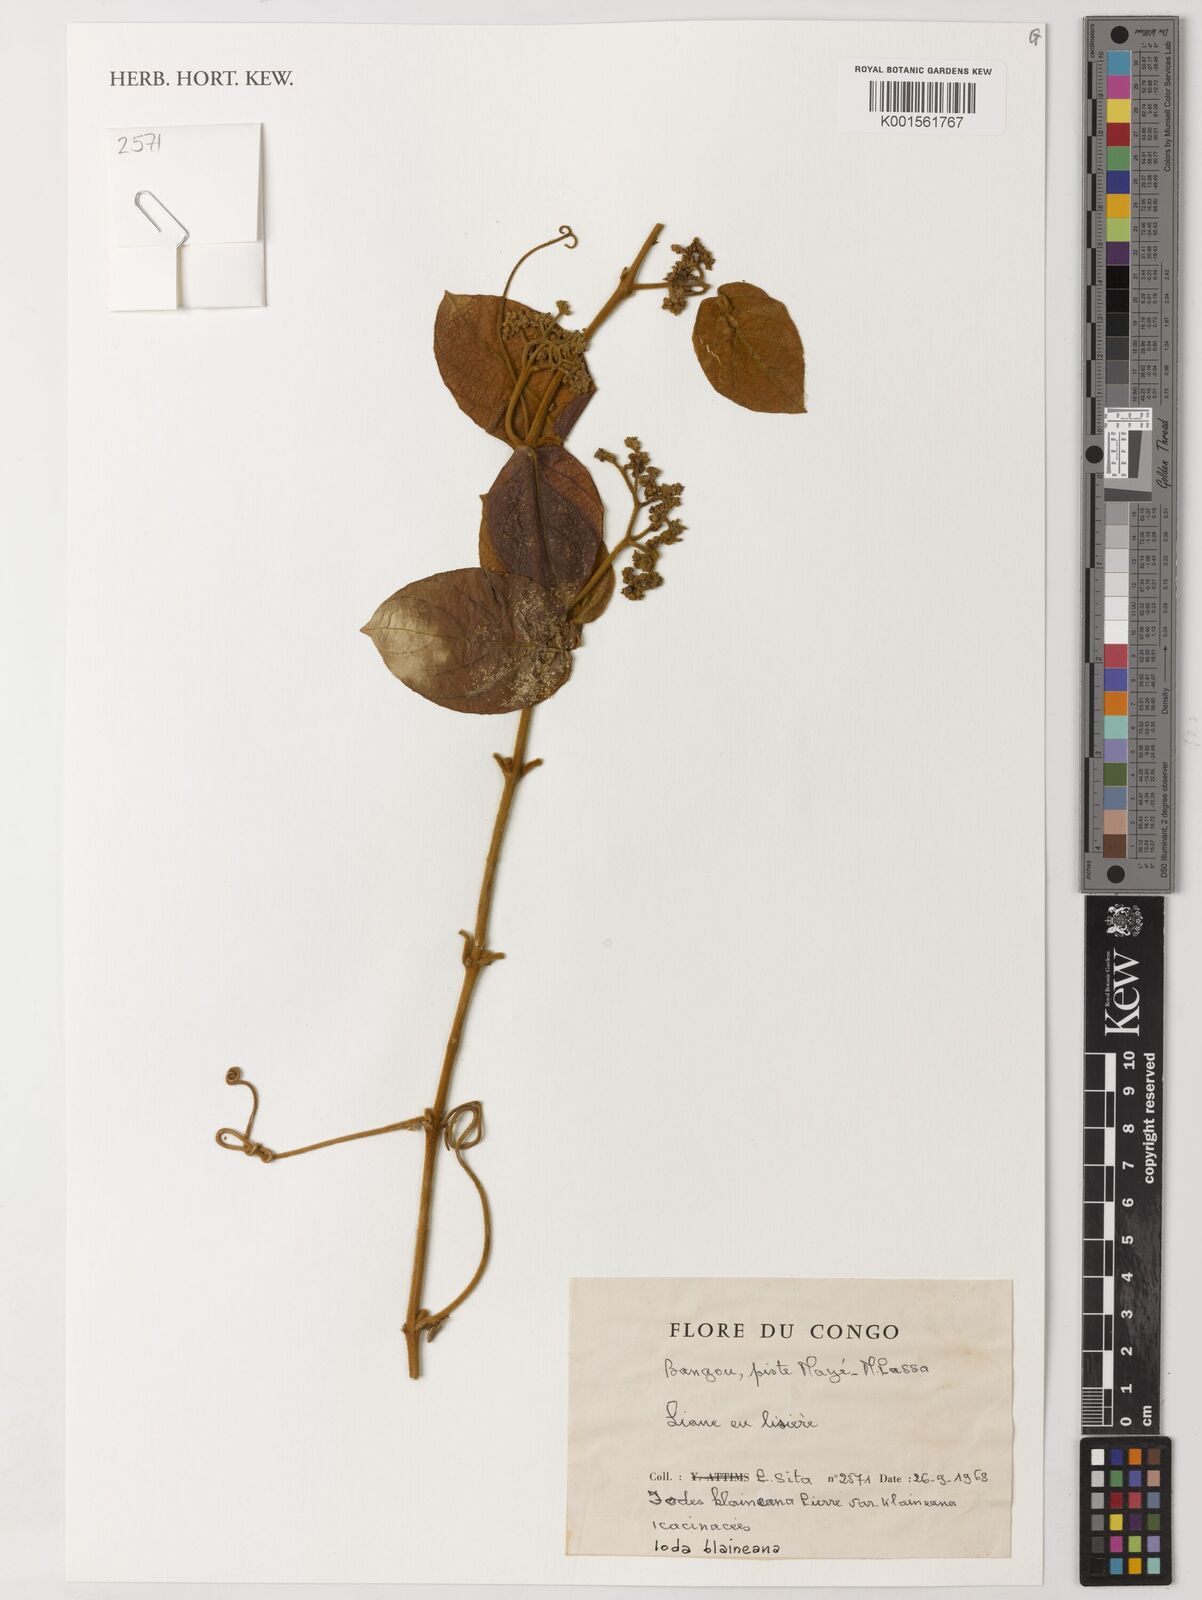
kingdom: Plantae
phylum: Tracheophyta
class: Magnoliopsida
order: Icacinales
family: Icacinaceae
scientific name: Icacinaceae
